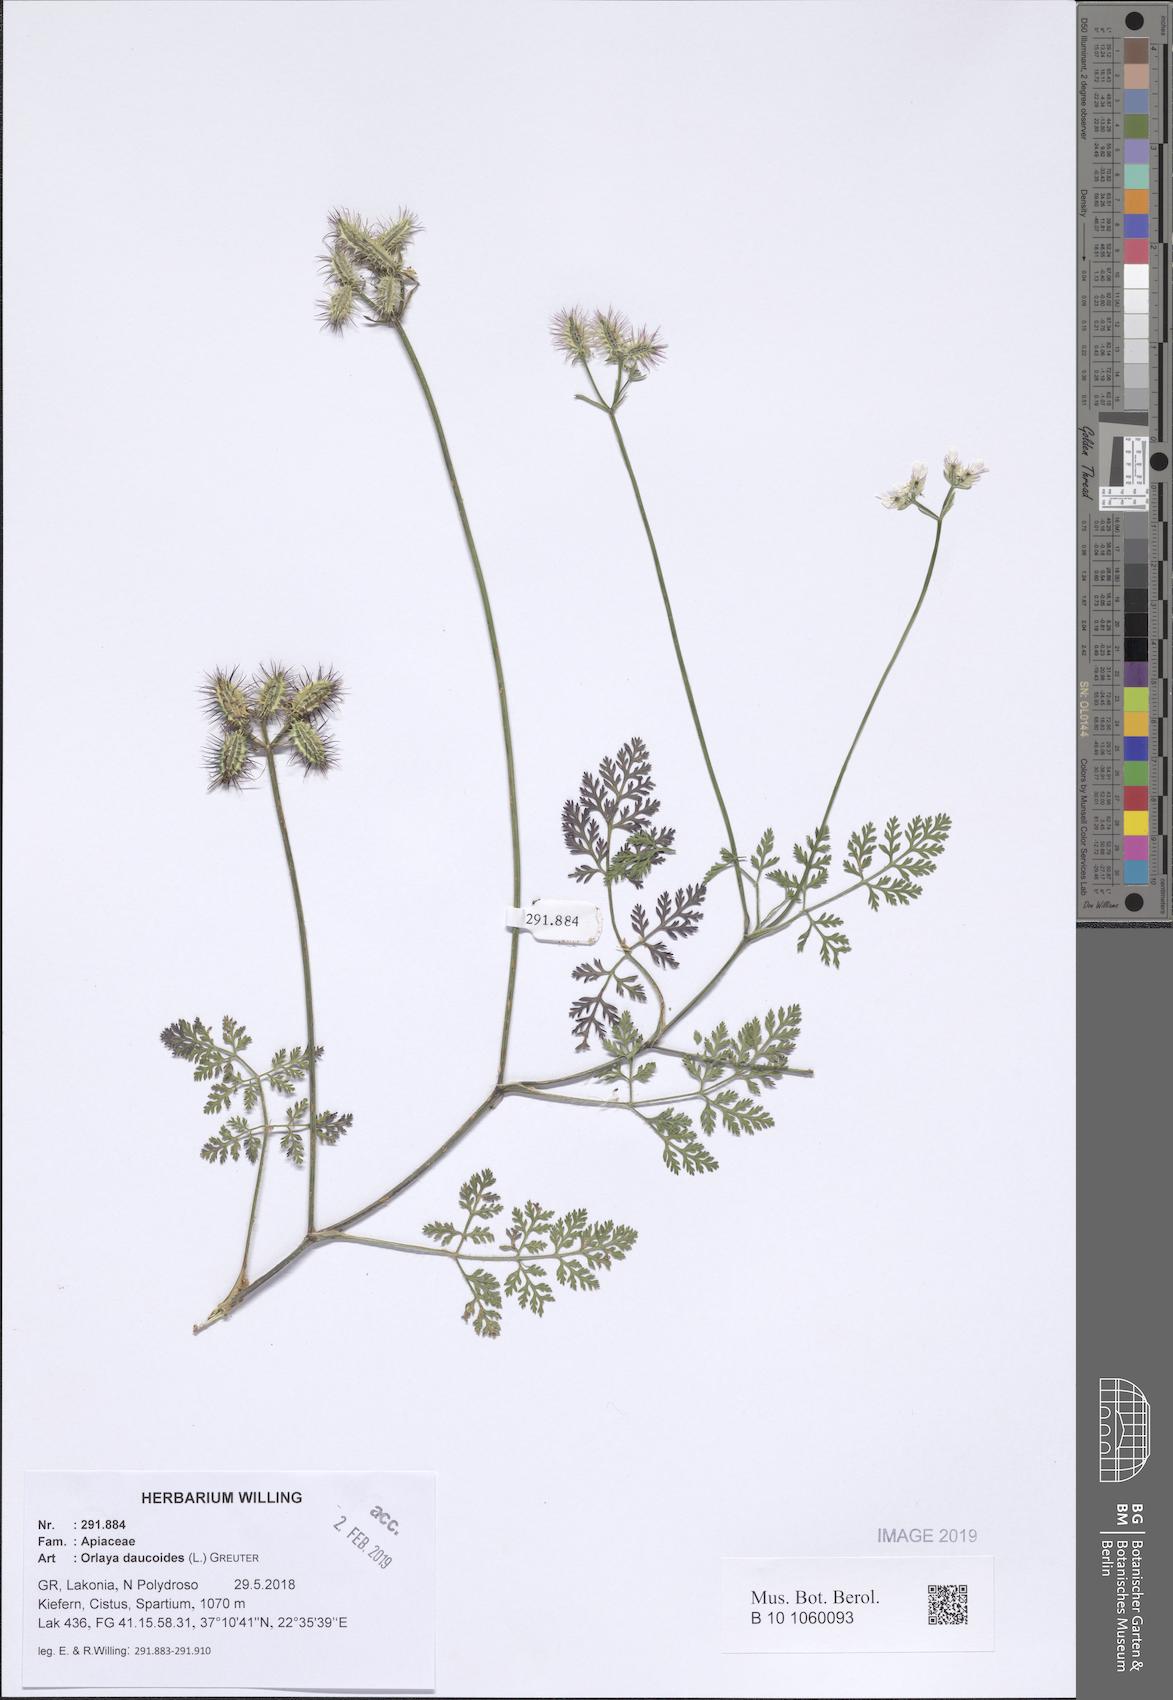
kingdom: Plantae
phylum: Tracheophyta
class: Magnoliopsida
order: Apiales
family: Apiaceae
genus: Orlaya
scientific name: Orlaya daucoides
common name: Flat-fruit orlaya
